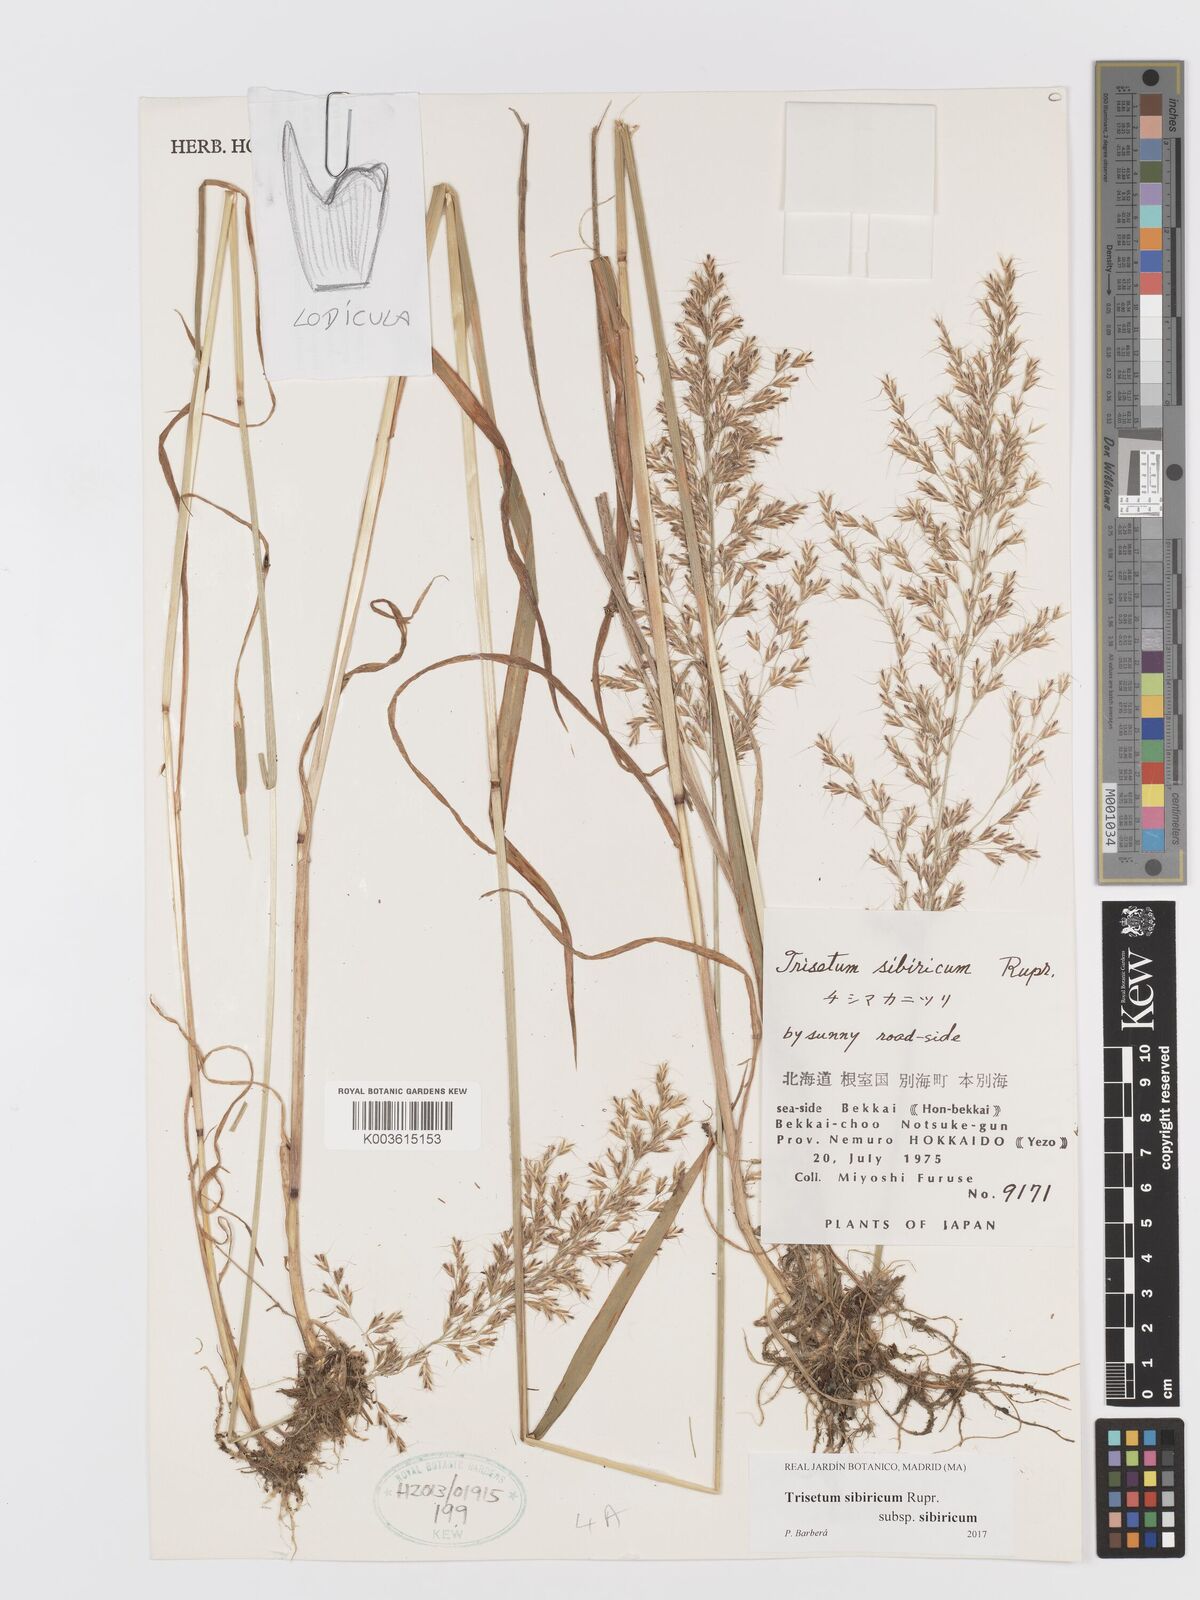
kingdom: Plantae
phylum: Tracheophyta
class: Liliopsida
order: Poales
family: Poaceae
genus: Sibirotrisetum
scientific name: Sibirotrisetum sibiricum
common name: Siberian false oat
